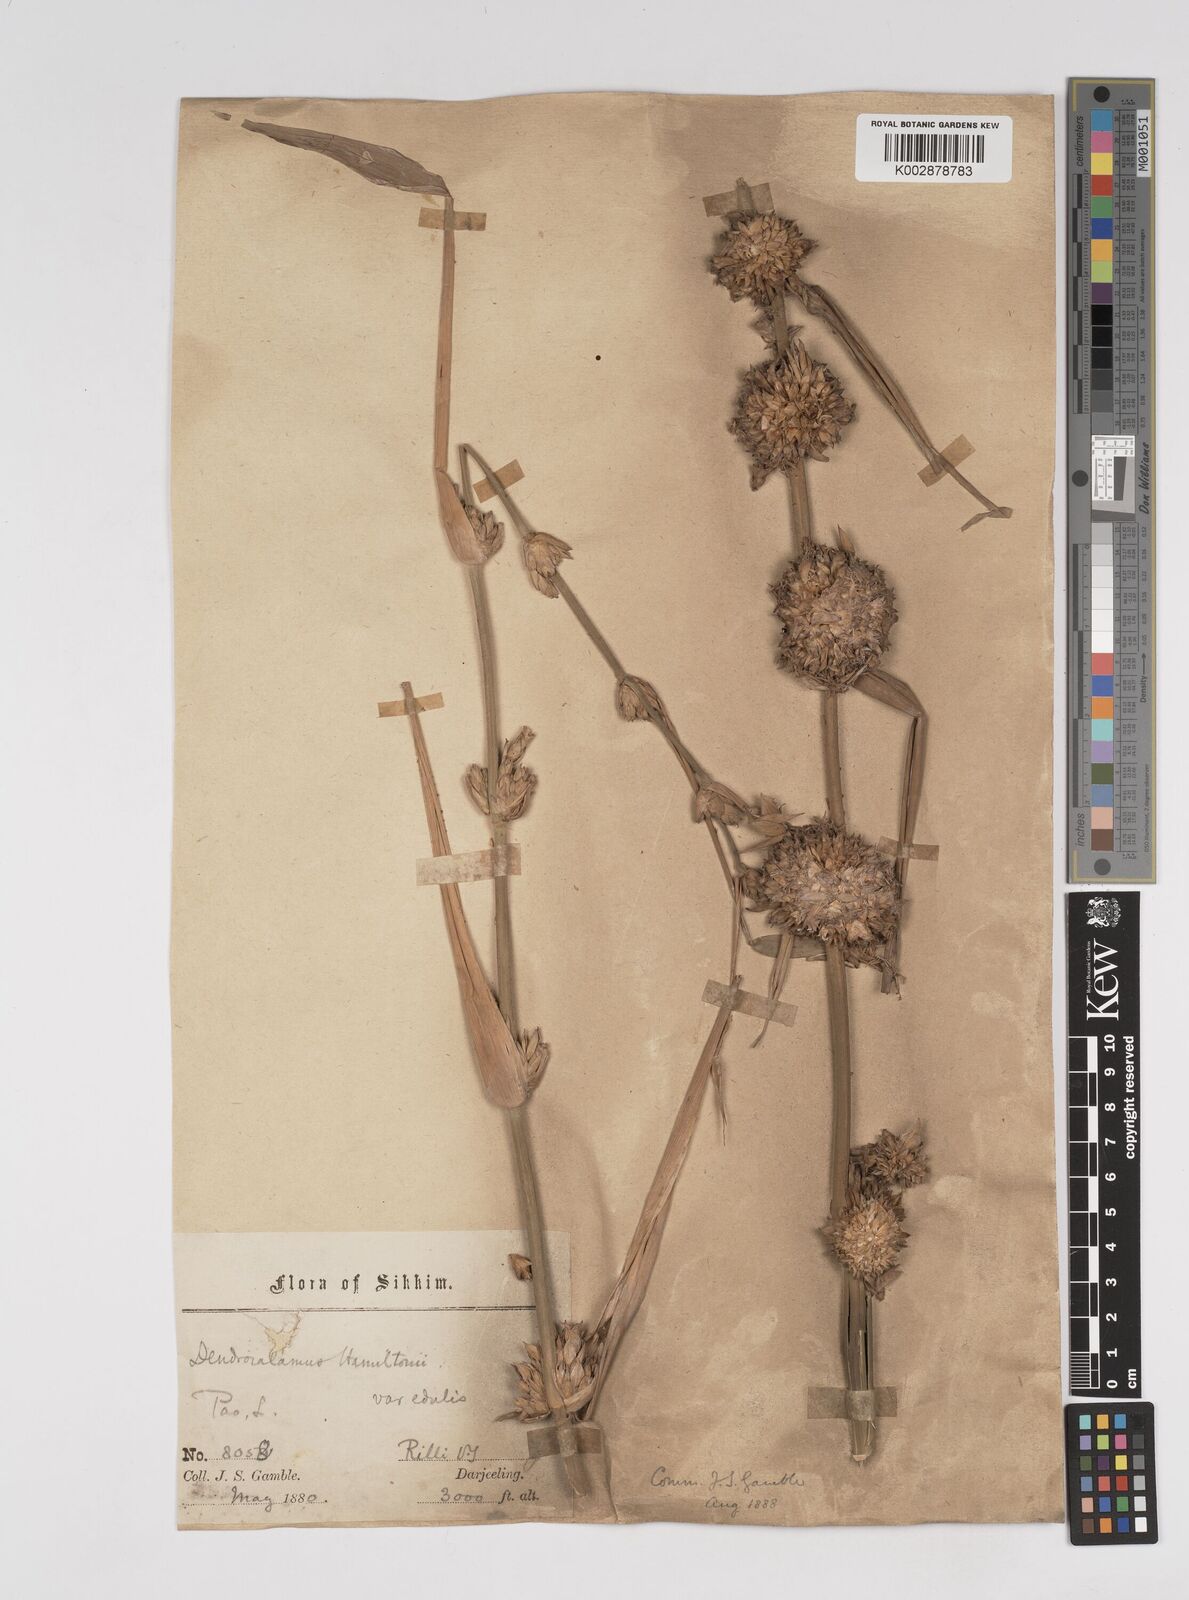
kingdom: Plantae
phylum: Tracheophyta
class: Liliopsida
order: Poales
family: Poaceae
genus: Dendrocalamus
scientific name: Dendrocalamus hamiltonii
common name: Tama bamboo
